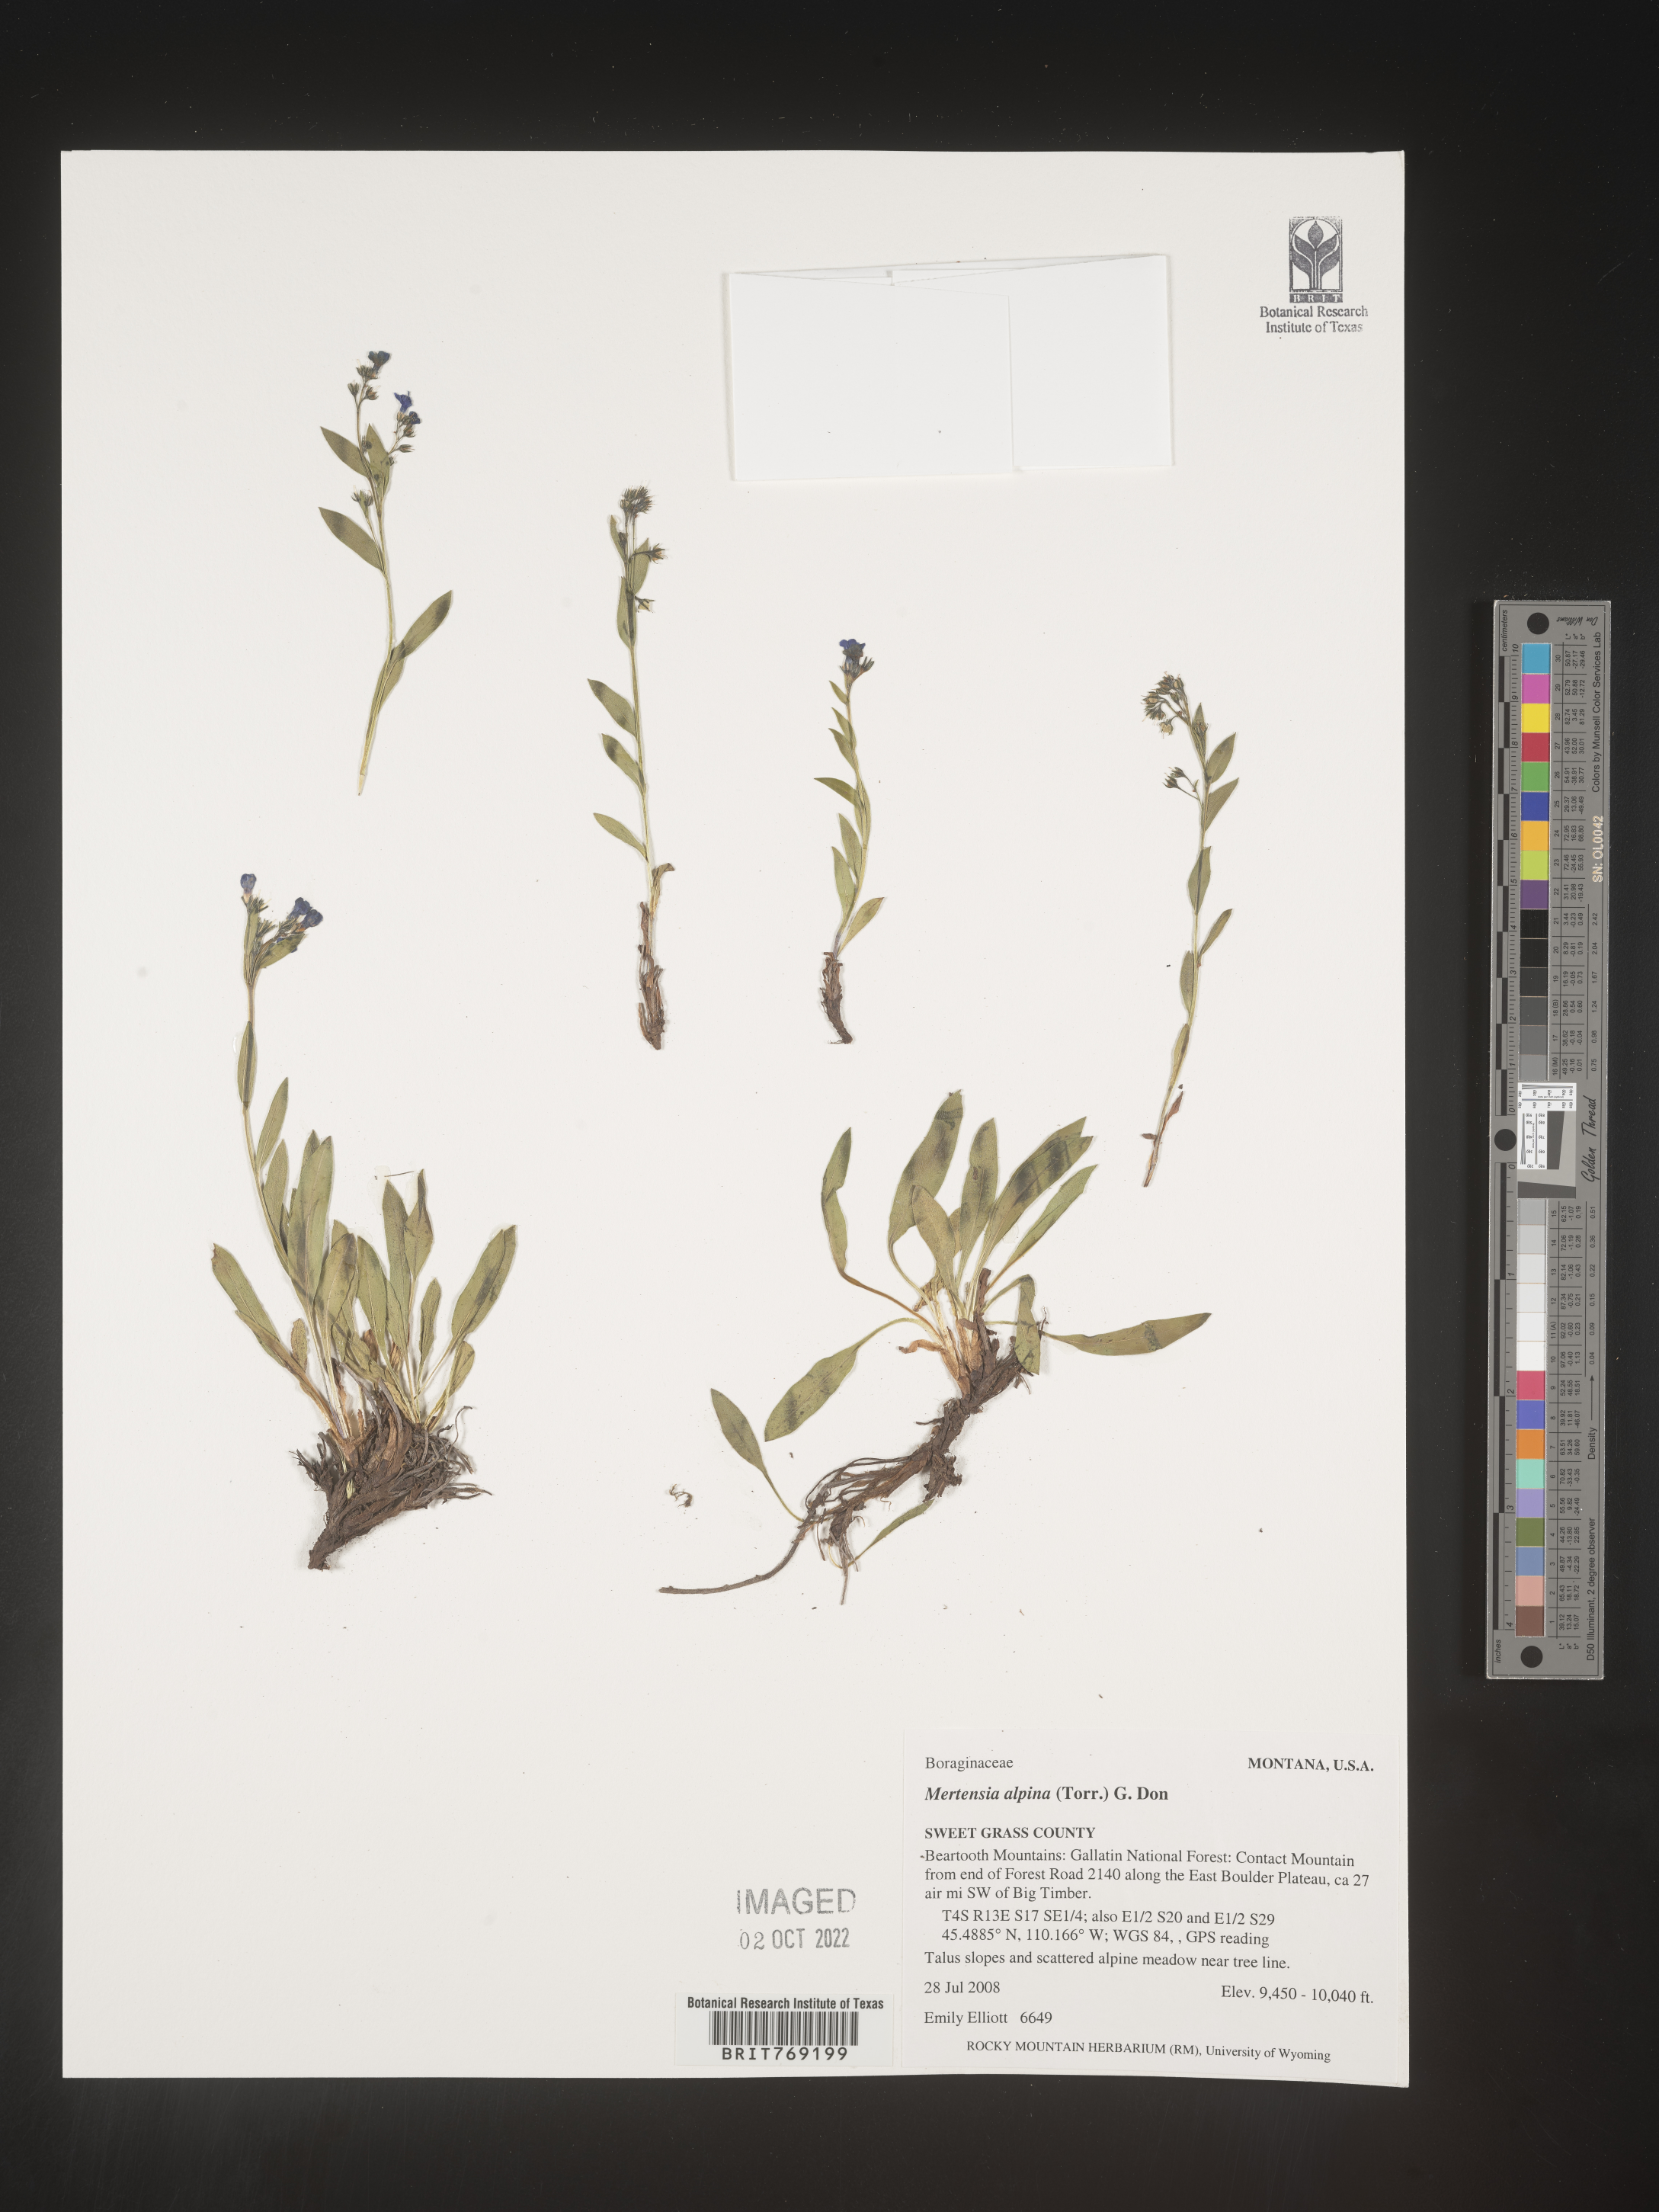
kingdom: Plantae
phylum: Tracheophyta
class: Magnoliopsida
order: Boraginales
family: Boraginaceae
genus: Mertensia
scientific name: Mertensia
